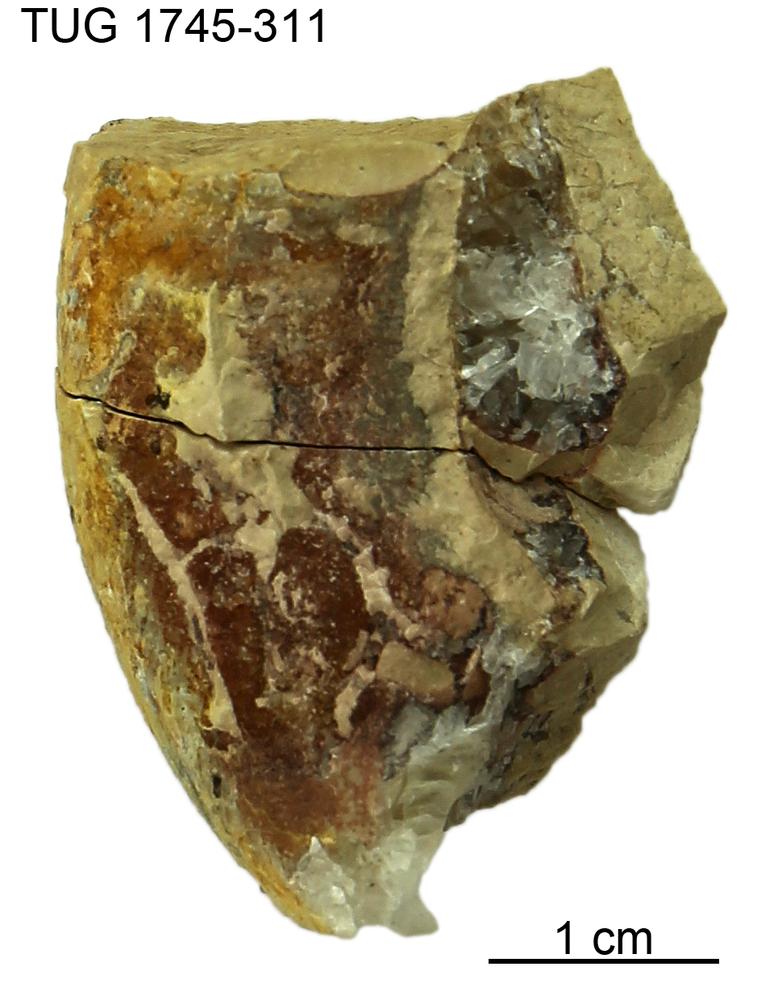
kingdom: Animalia
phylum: Mollusca
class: Cephalopoda
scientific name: Cephalopoda
